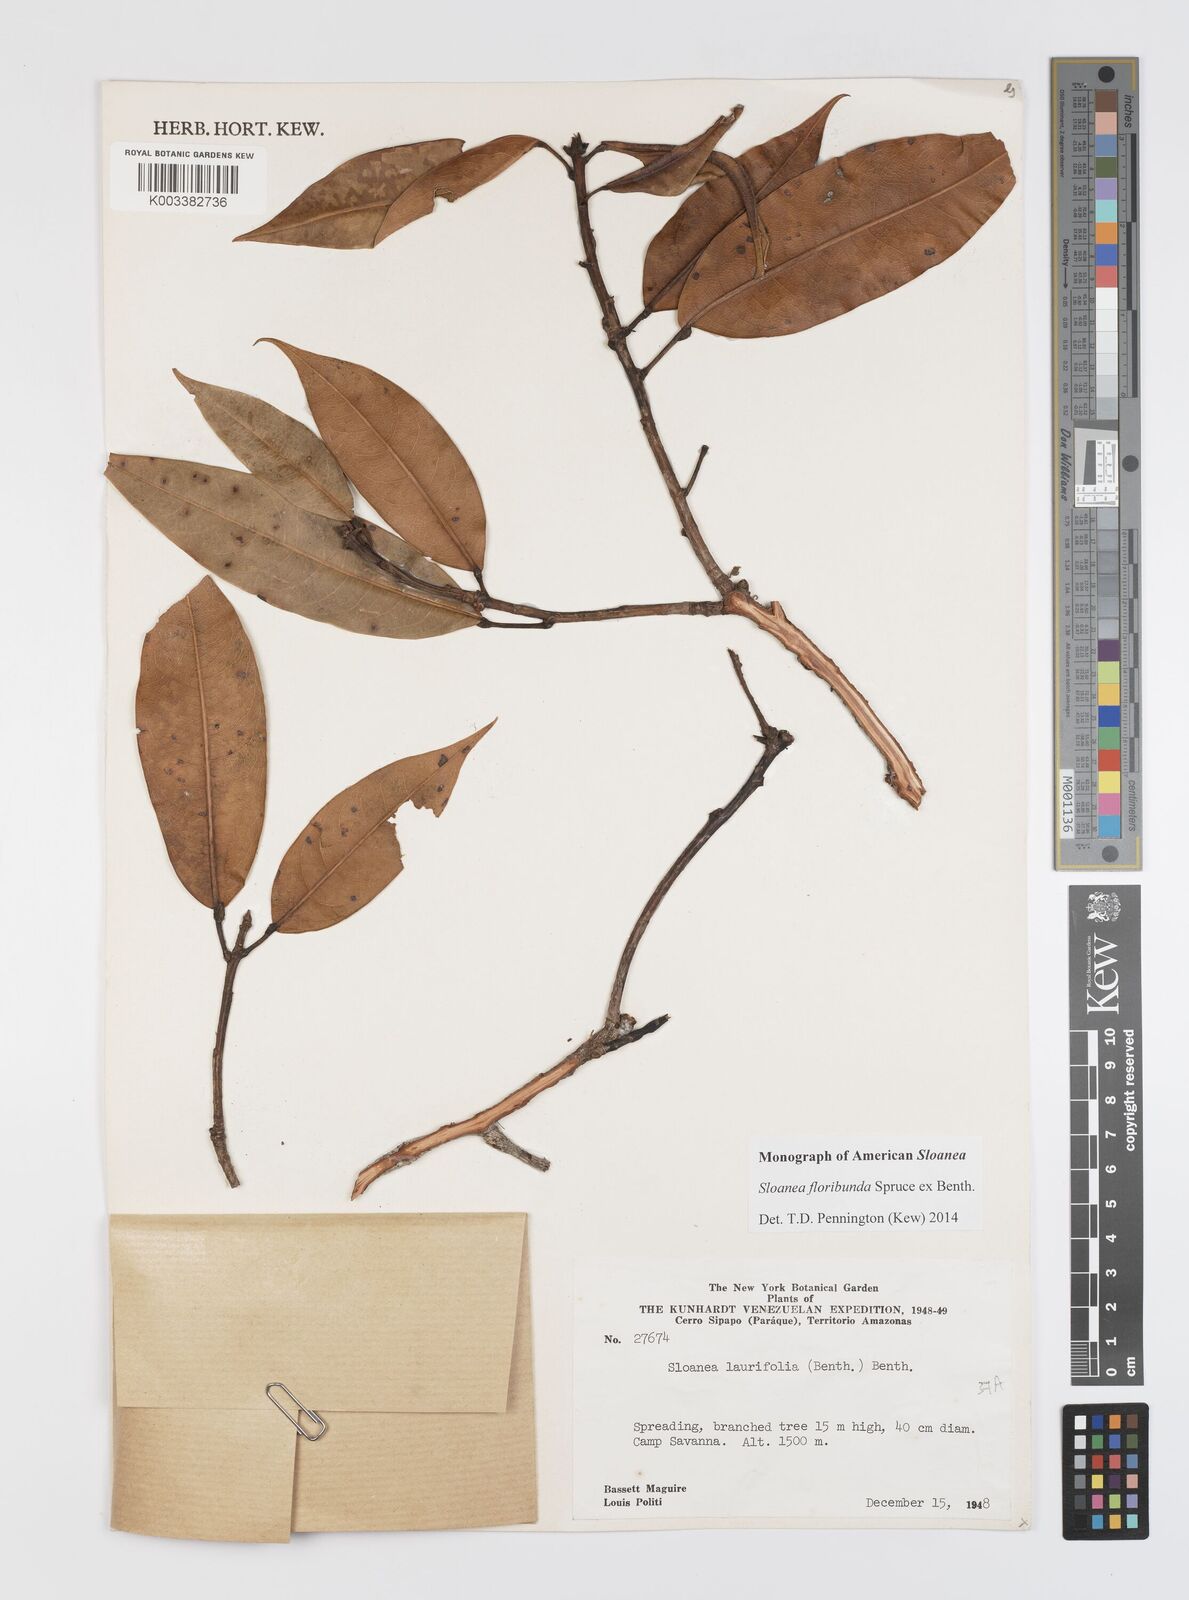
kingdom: Plantae
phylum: Tracheophyta
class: Magnoliopsida
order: Oxalidales
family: Elaeocarpaceae
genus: Sloanea
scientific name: Sloanea floribunda
